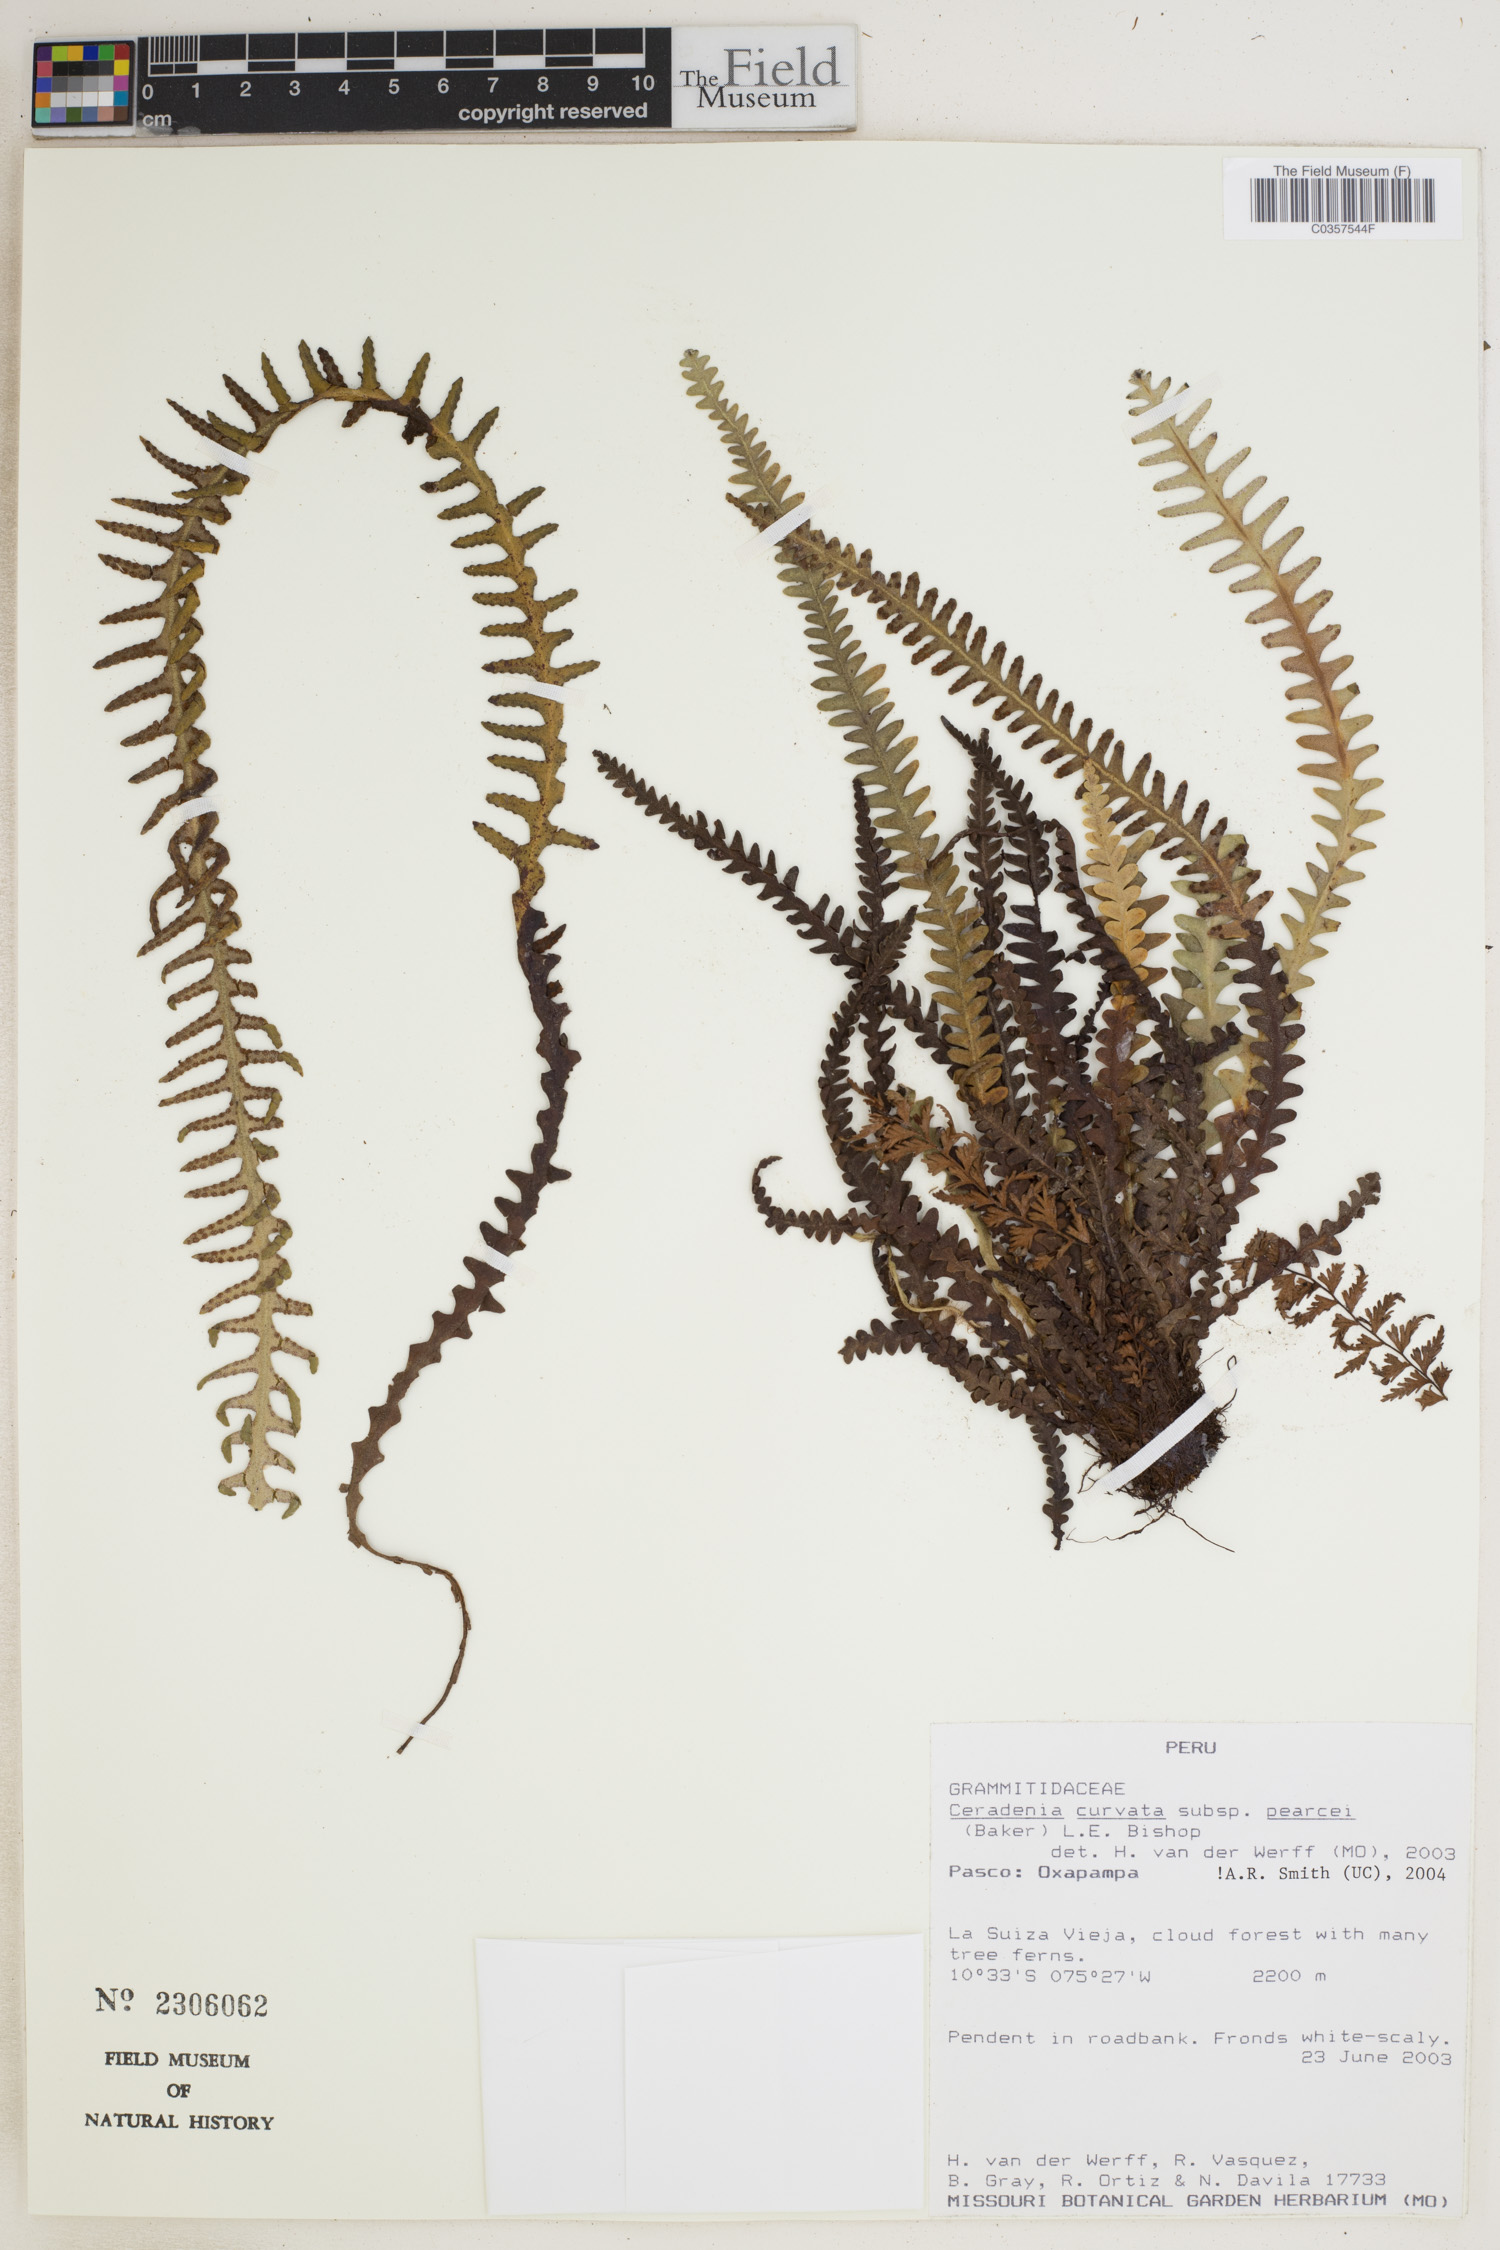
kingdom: Plantae
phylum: Tracheophyta
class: Polypodiopsida
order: Polypodiales
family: Polypodiaceae
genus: Ceradenia
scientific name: Ceradenia curvata
